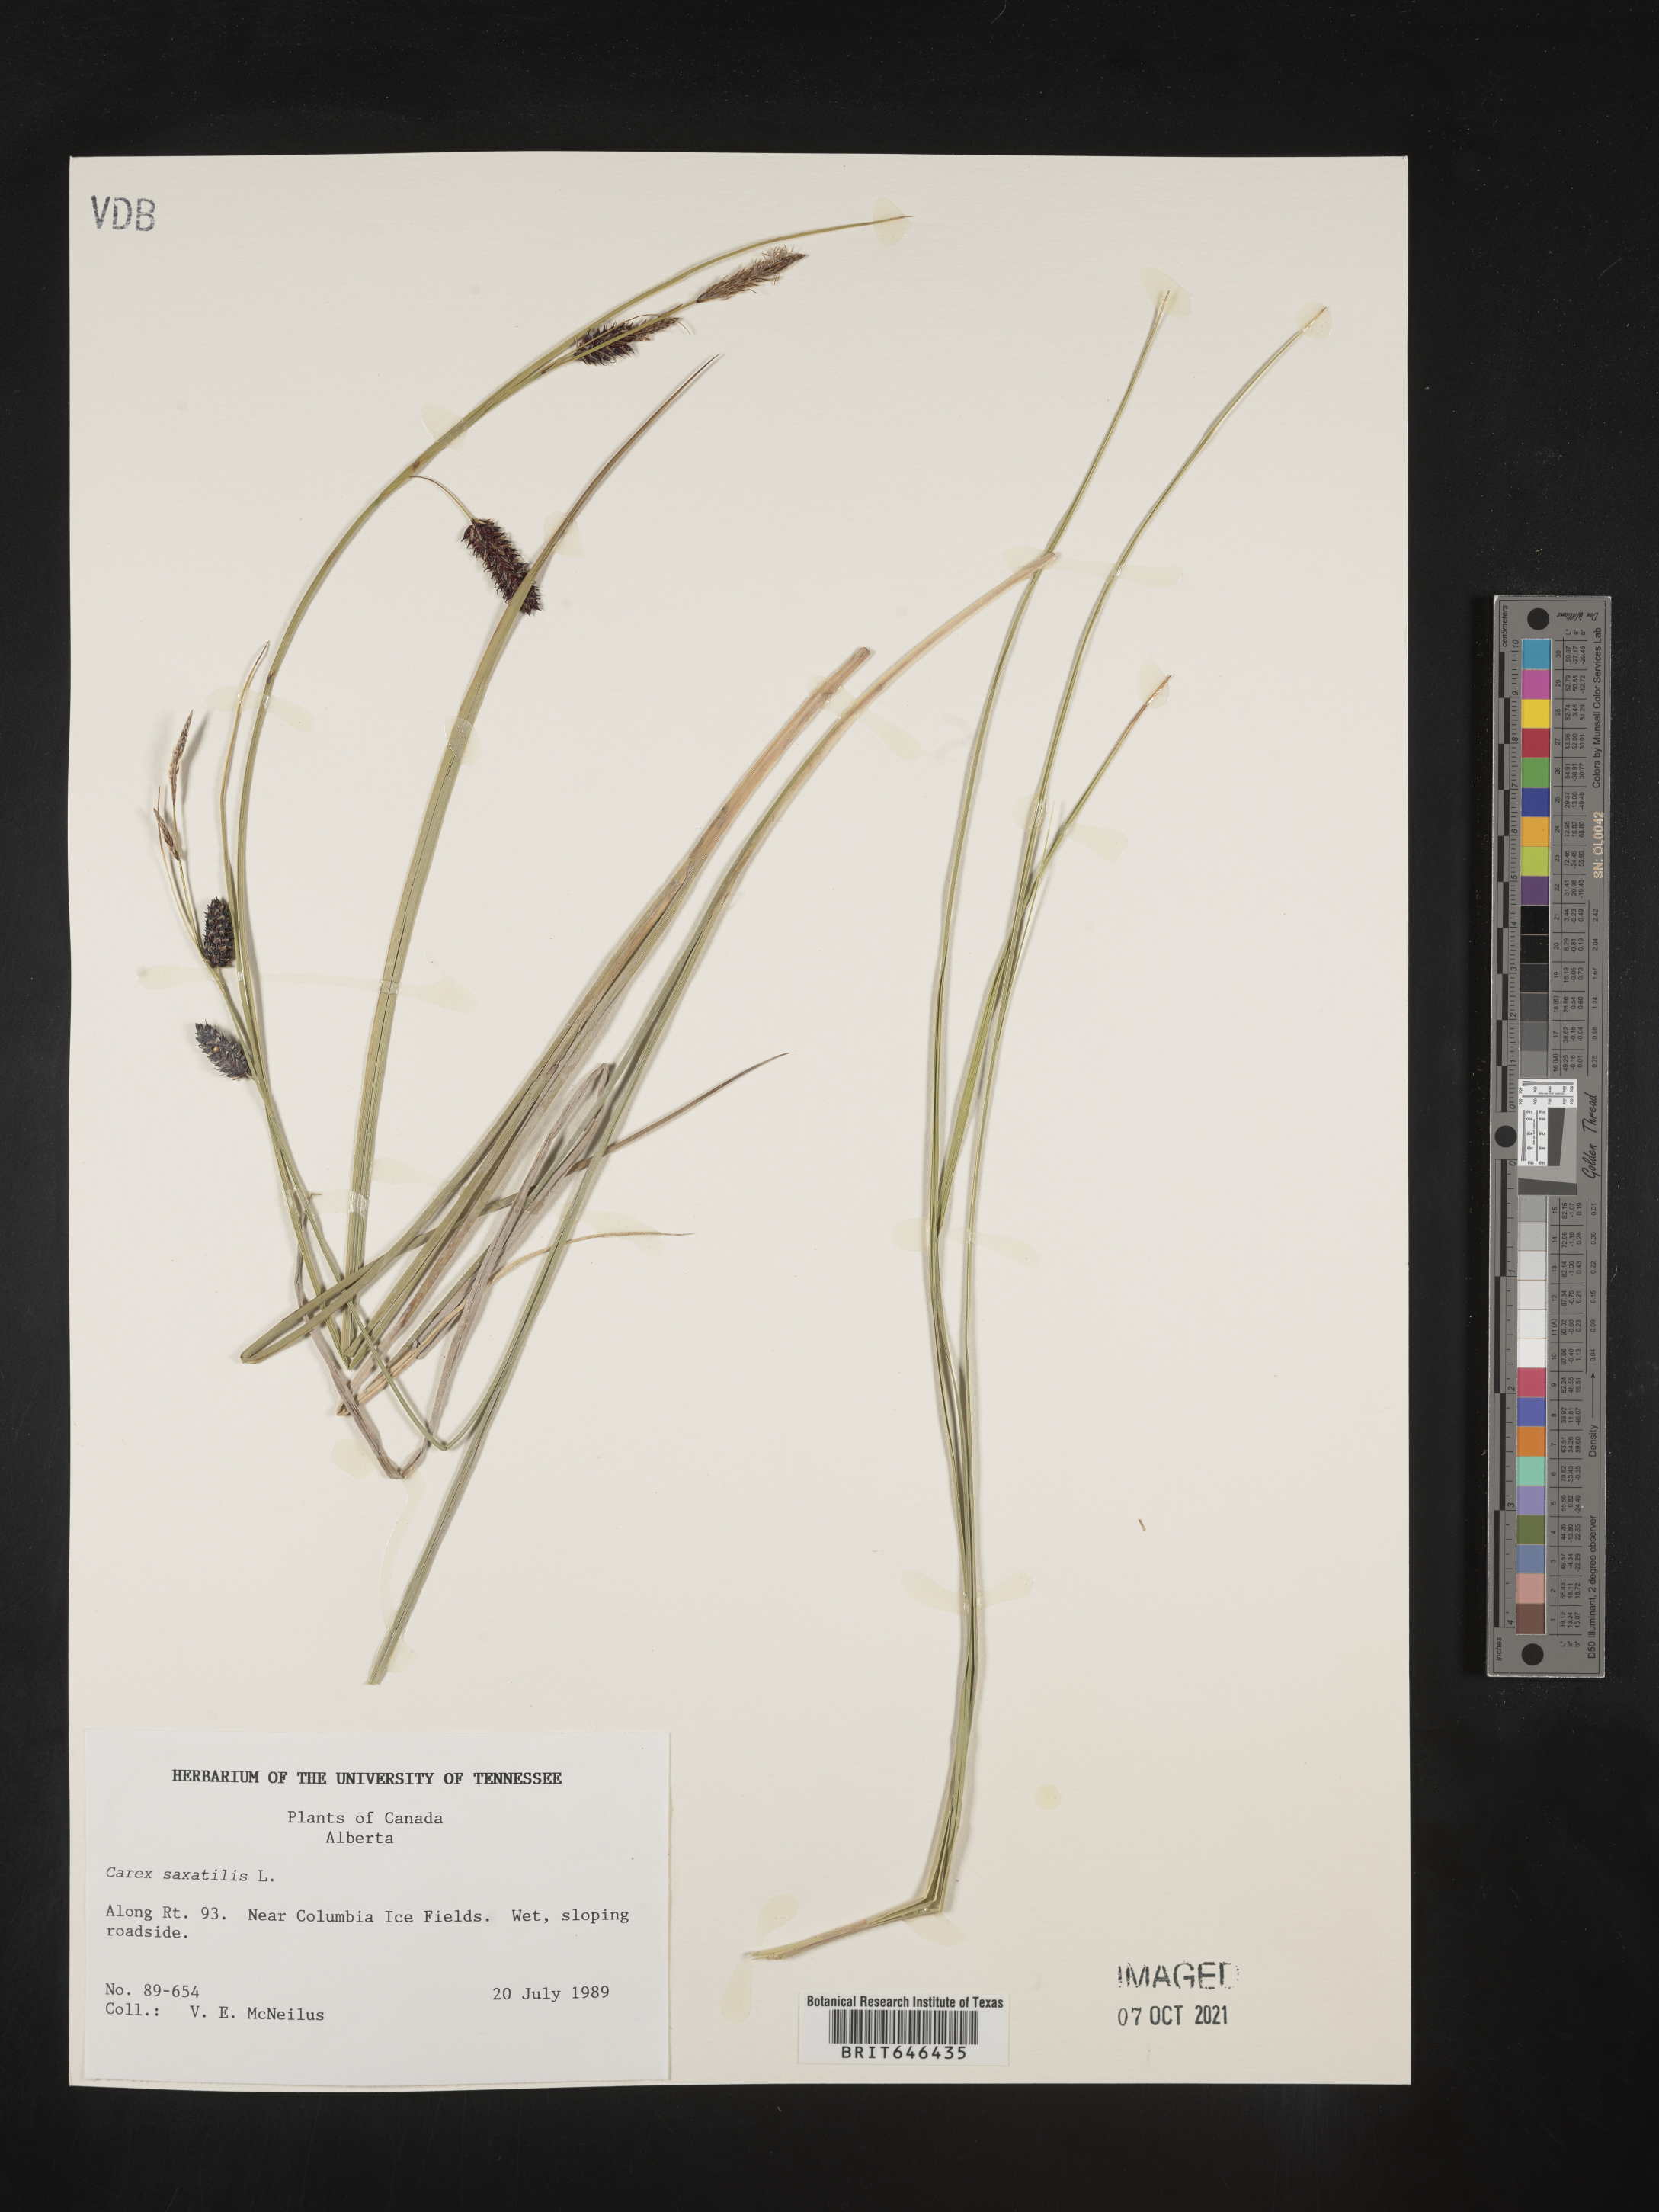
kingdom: Plantae
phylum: Tracheophyta
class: Liliopsida
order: Poales
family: Cyperaceae
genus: Carex
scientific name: Carex saxatilis
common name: Russet sedge
